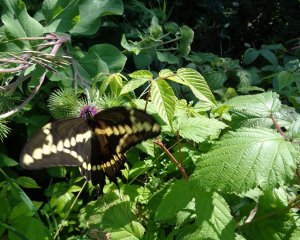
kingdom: Animalia
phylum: Arthropoda
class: Insecta
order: Lepidoptera
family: Papilionidae
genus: Papilio
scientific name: Papilio cresphontes
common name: Eastern Giant Swallowtail
